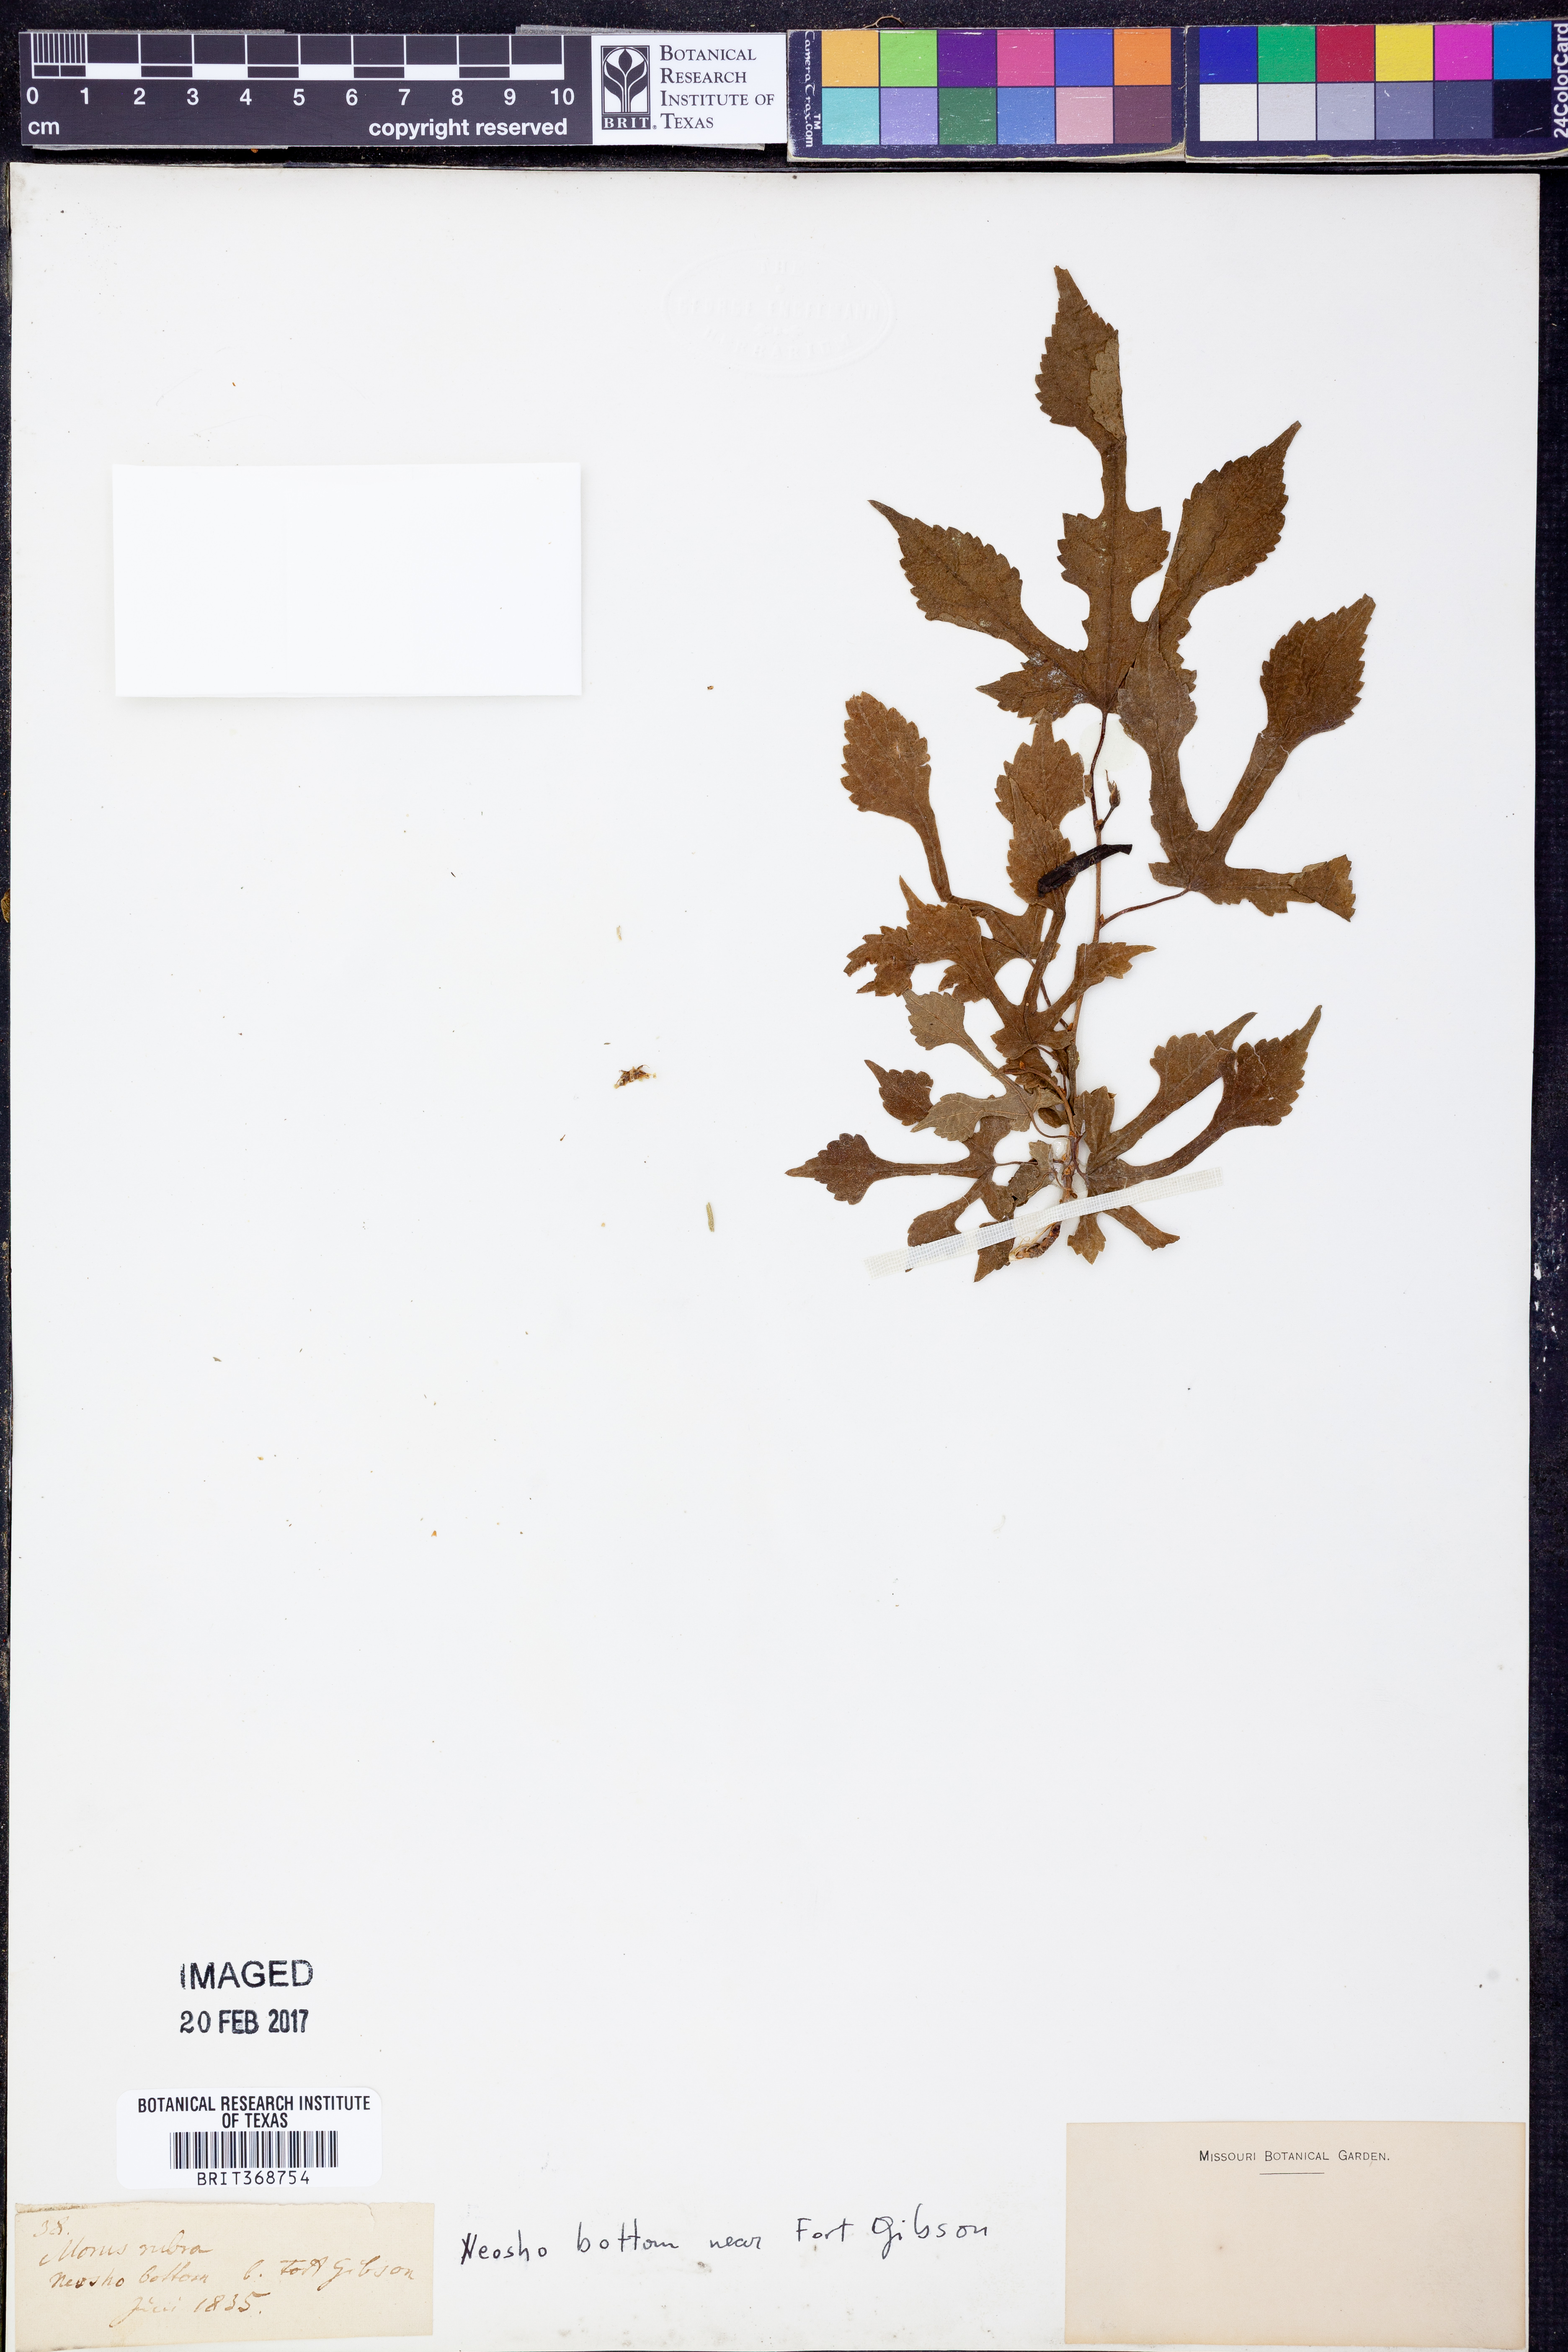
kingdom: Plantae
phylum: Tracheophyta
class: Magnoliopsida
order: Rosales
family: Moraceae
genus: Morus
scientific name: Morus rubra
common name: Red mulberry
